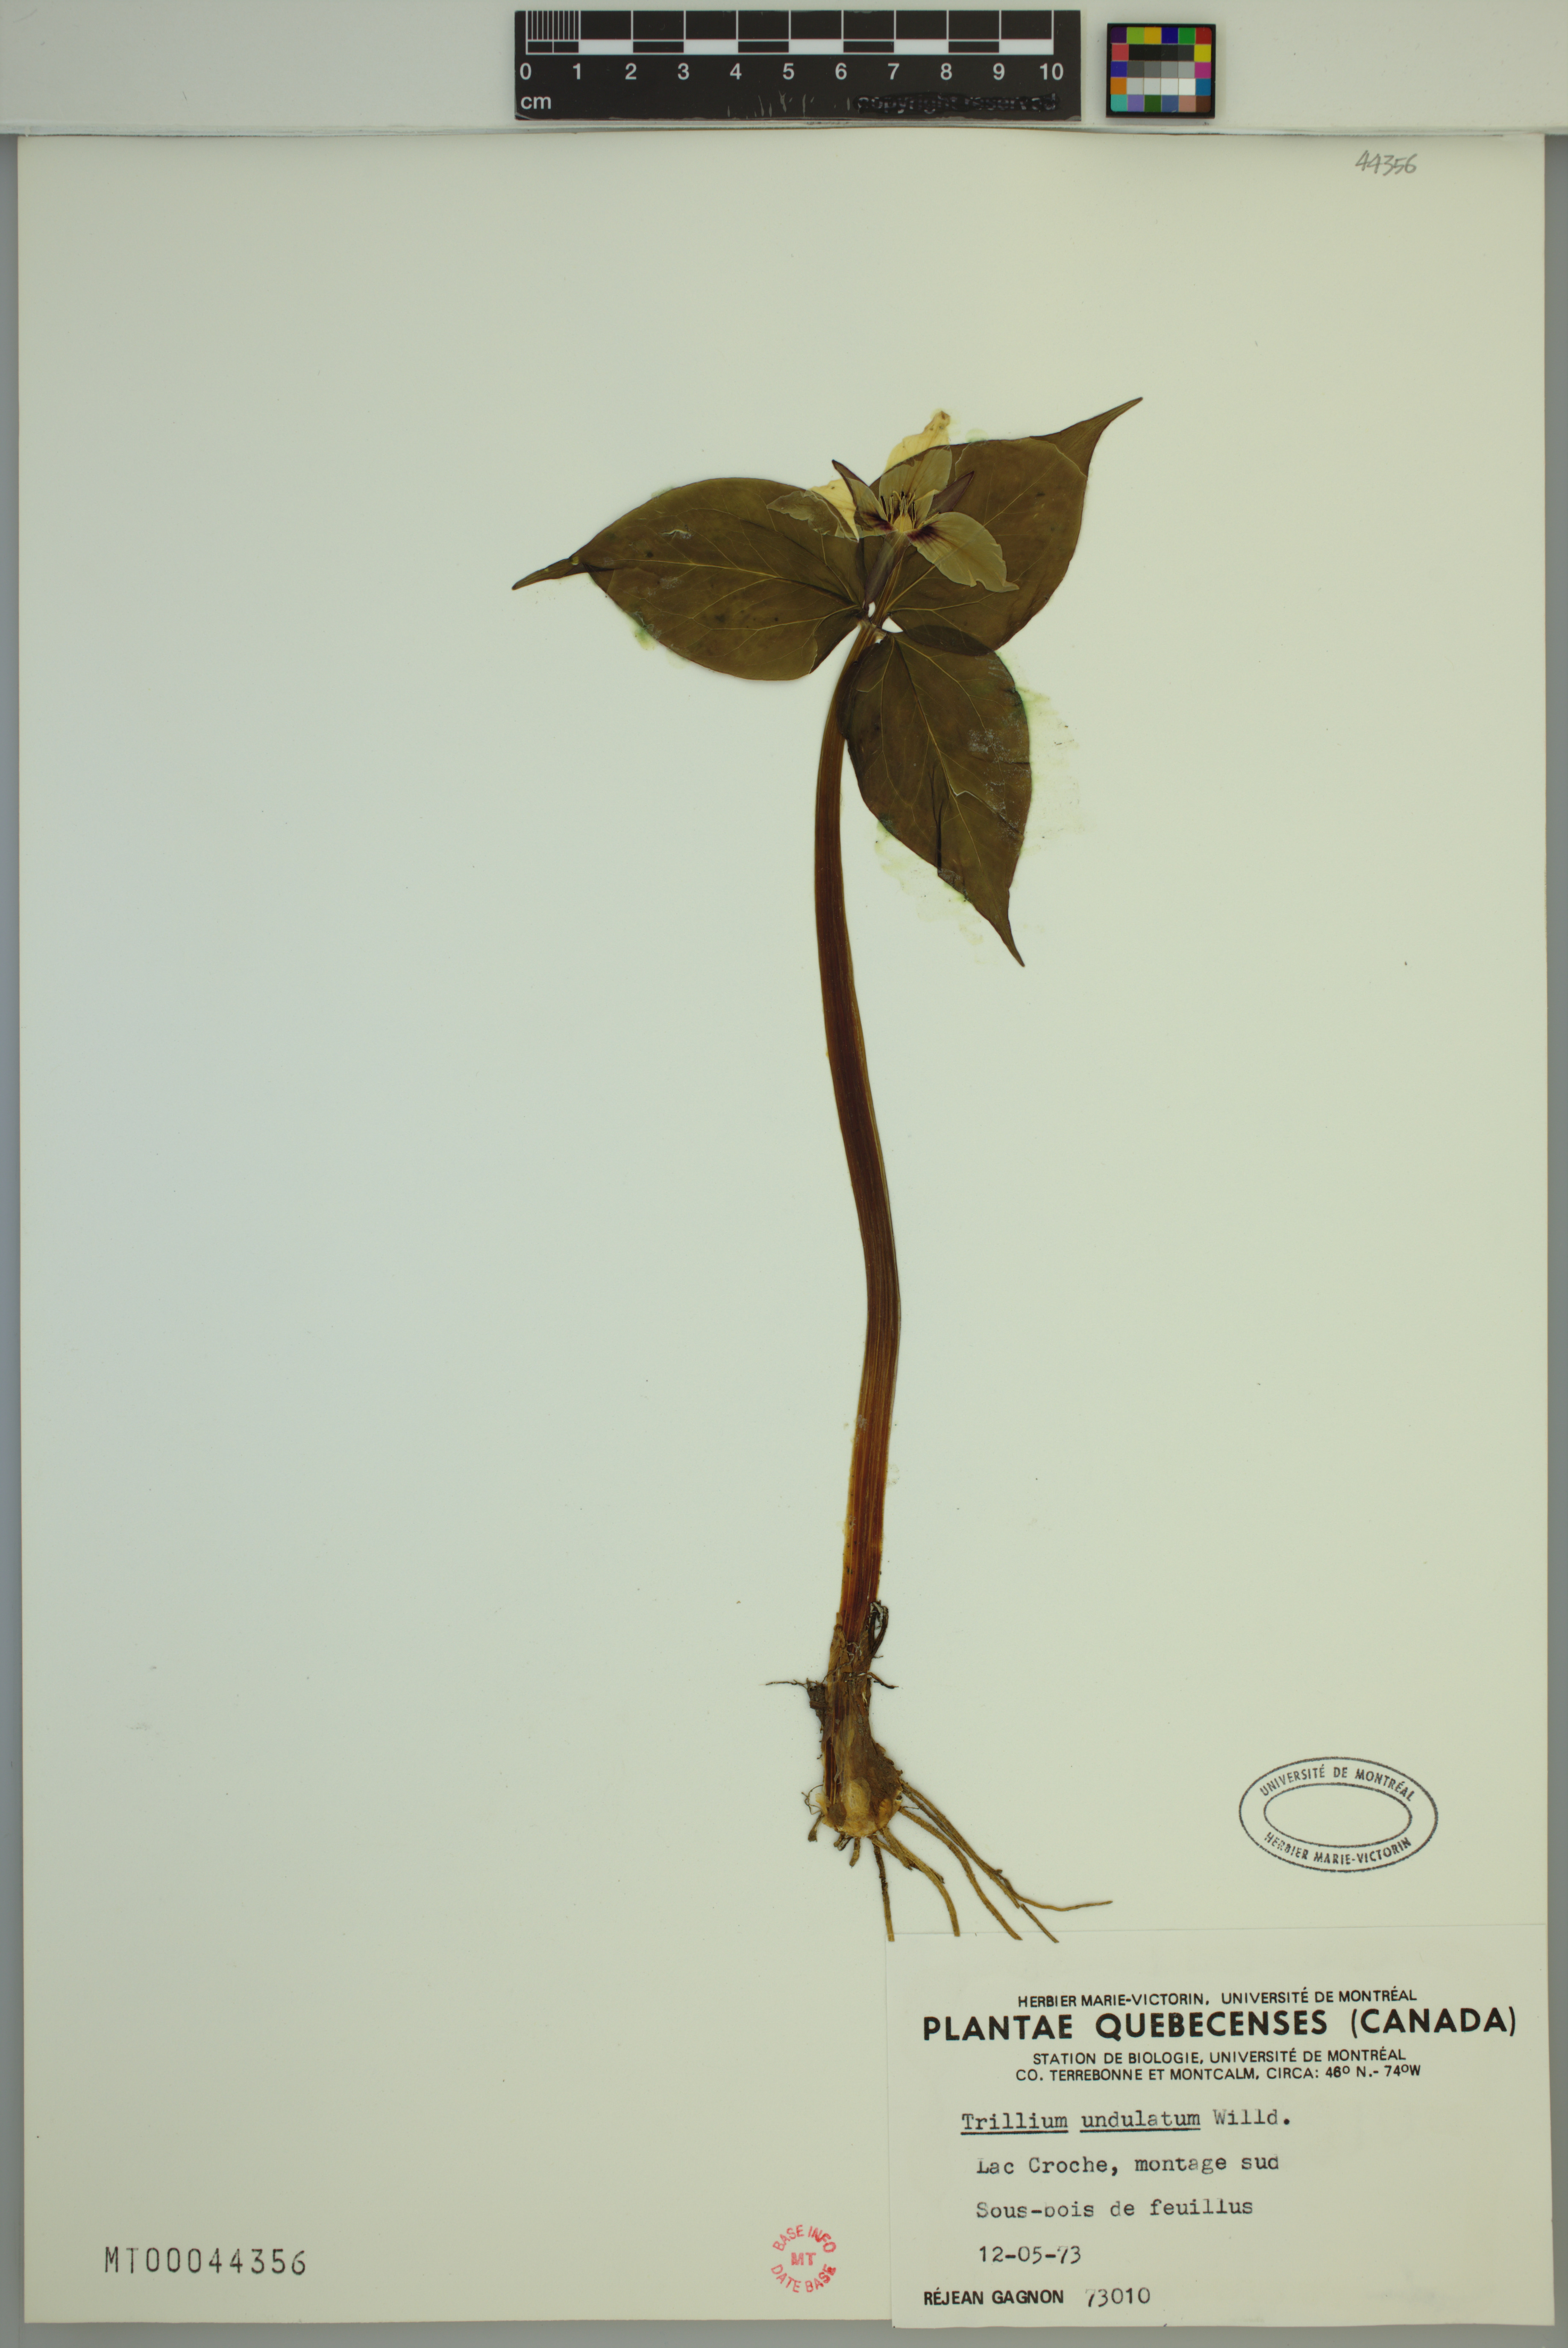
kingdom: Plantae
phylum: Tracheophyta
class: Liliopsida
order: Liliales
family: Melanthiaceae
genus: Trillium
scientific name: Trillium undulatum
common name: Paint trillium
